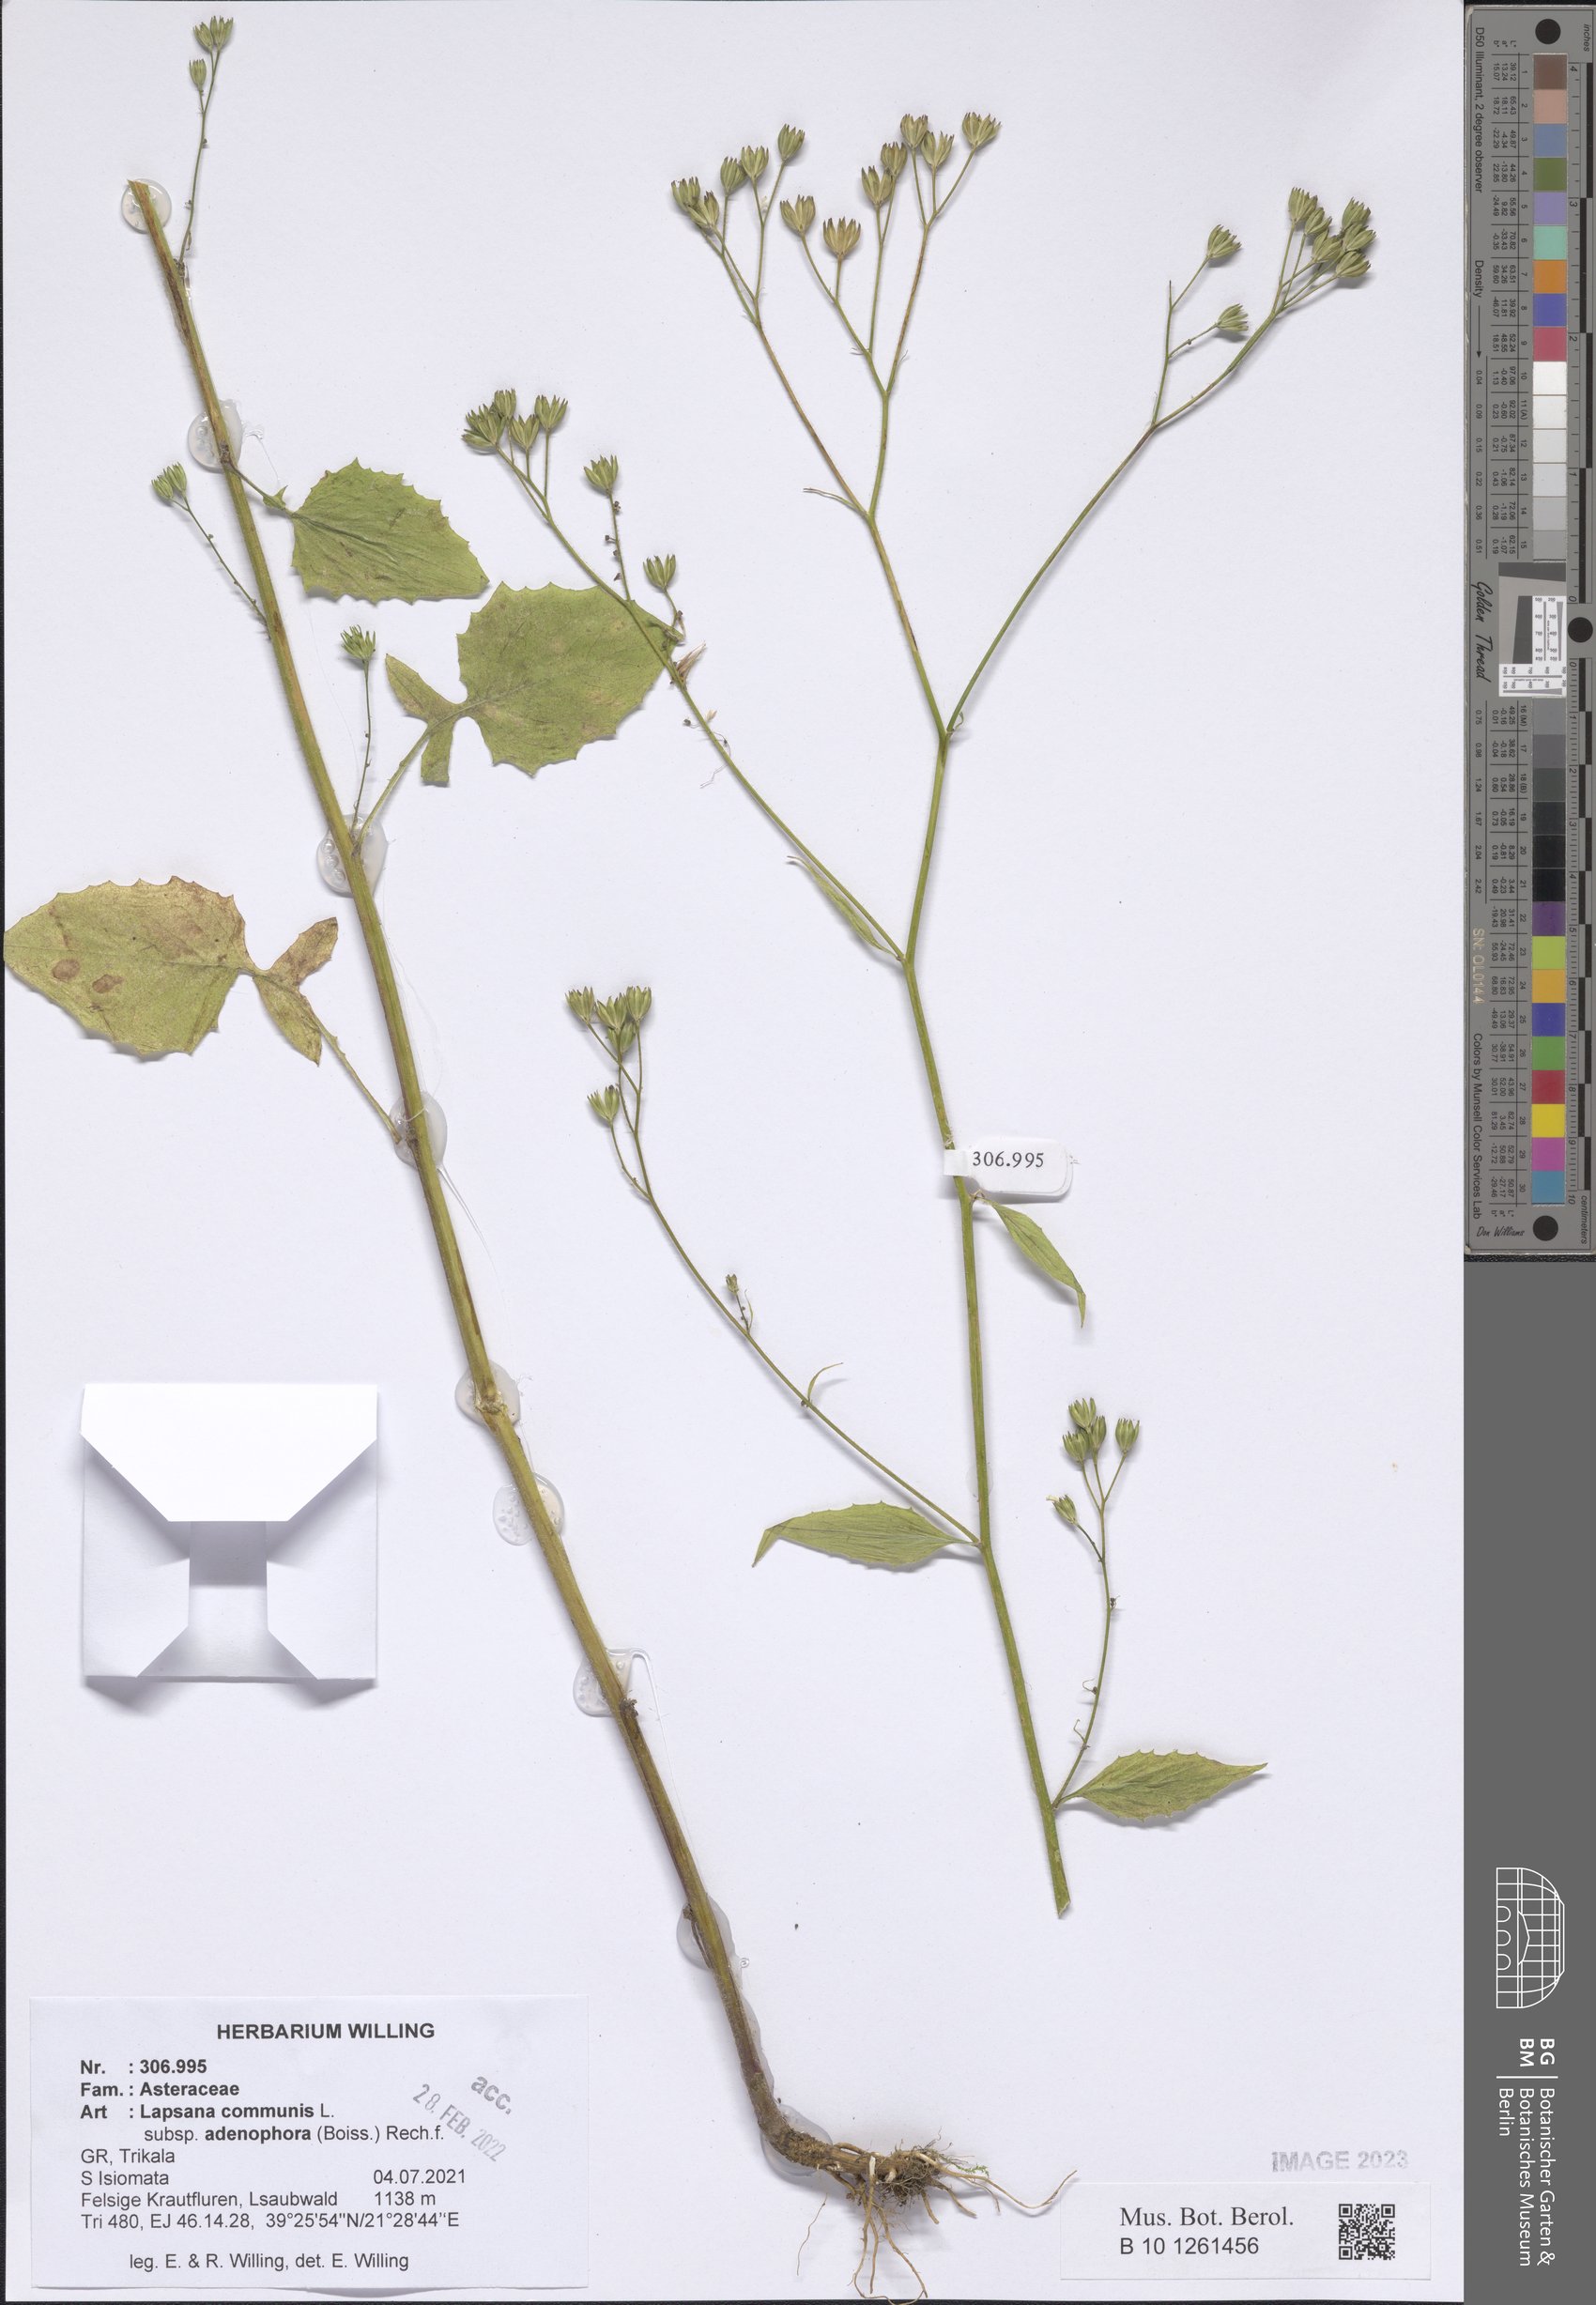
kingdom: Plantae
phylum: Tracheophyta
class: Magnoliopsida
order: Asterales
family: Asteraceae
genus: Lapsana
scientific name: Lapsana communis
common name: Nipplewort
